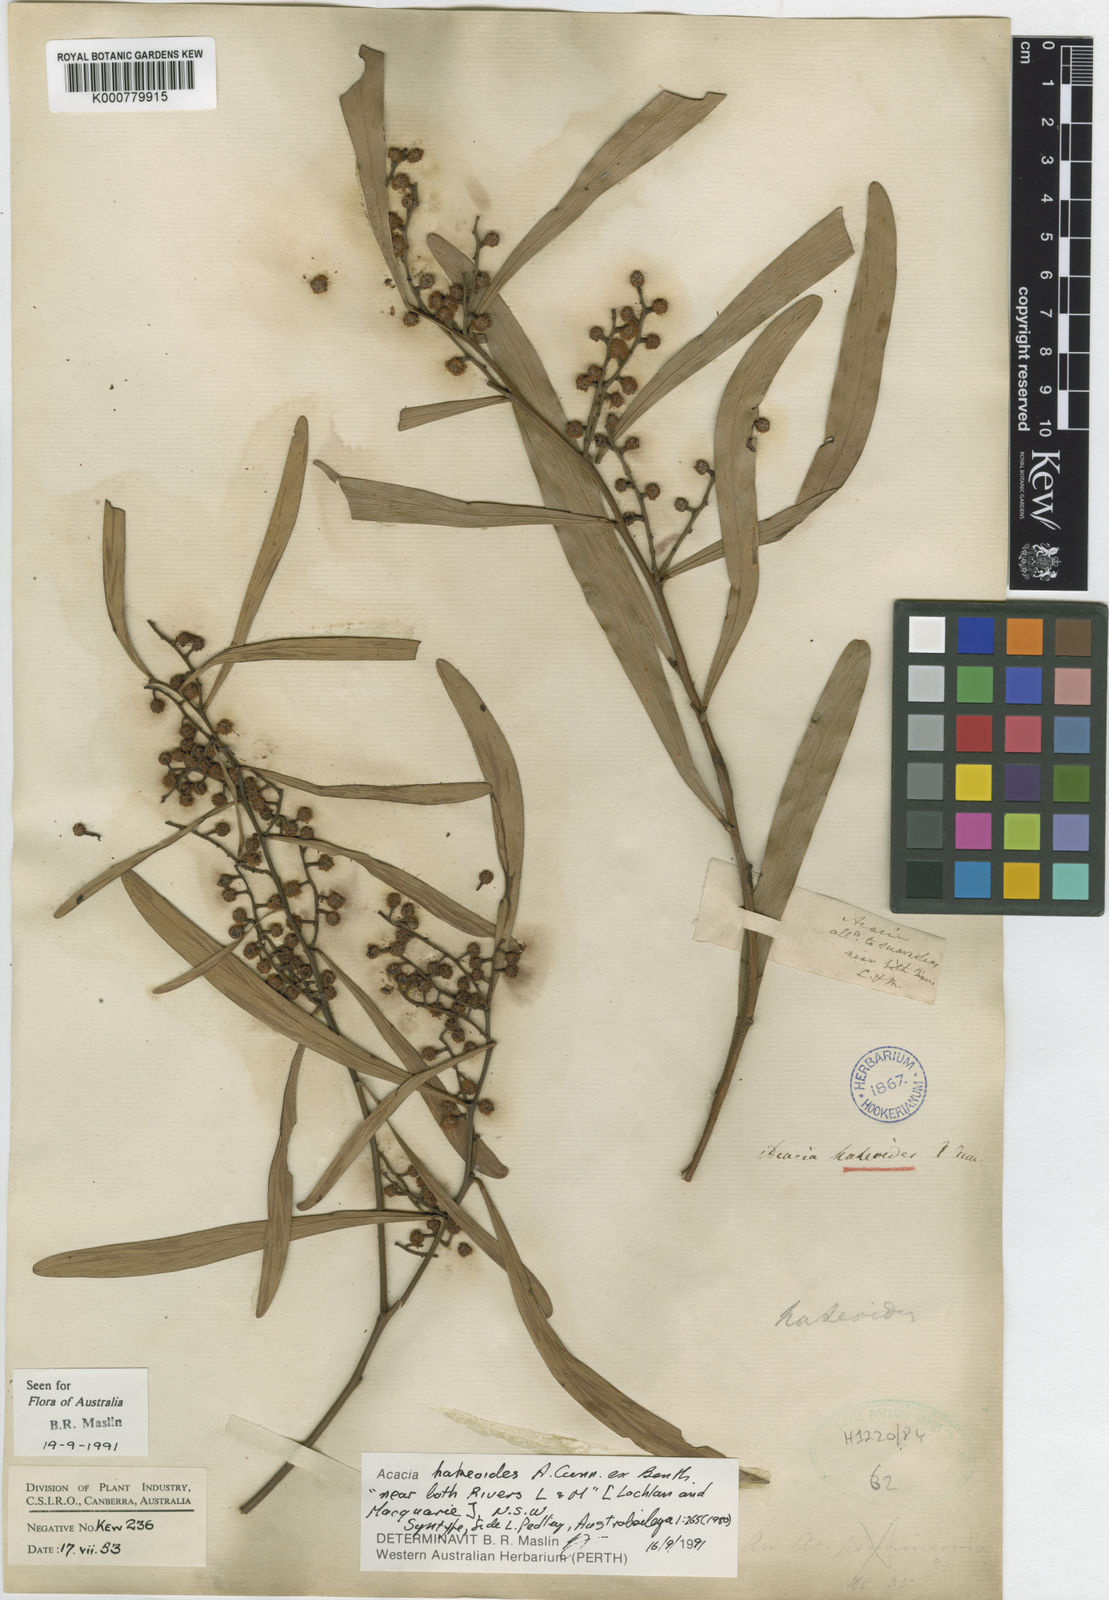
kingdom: Plantae
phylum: Tracheophyta
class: Magnoliopsida
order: Fabales
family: Fabaceae
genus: Acacia
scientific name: Acacia hakeoides
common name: Hakea wattle
